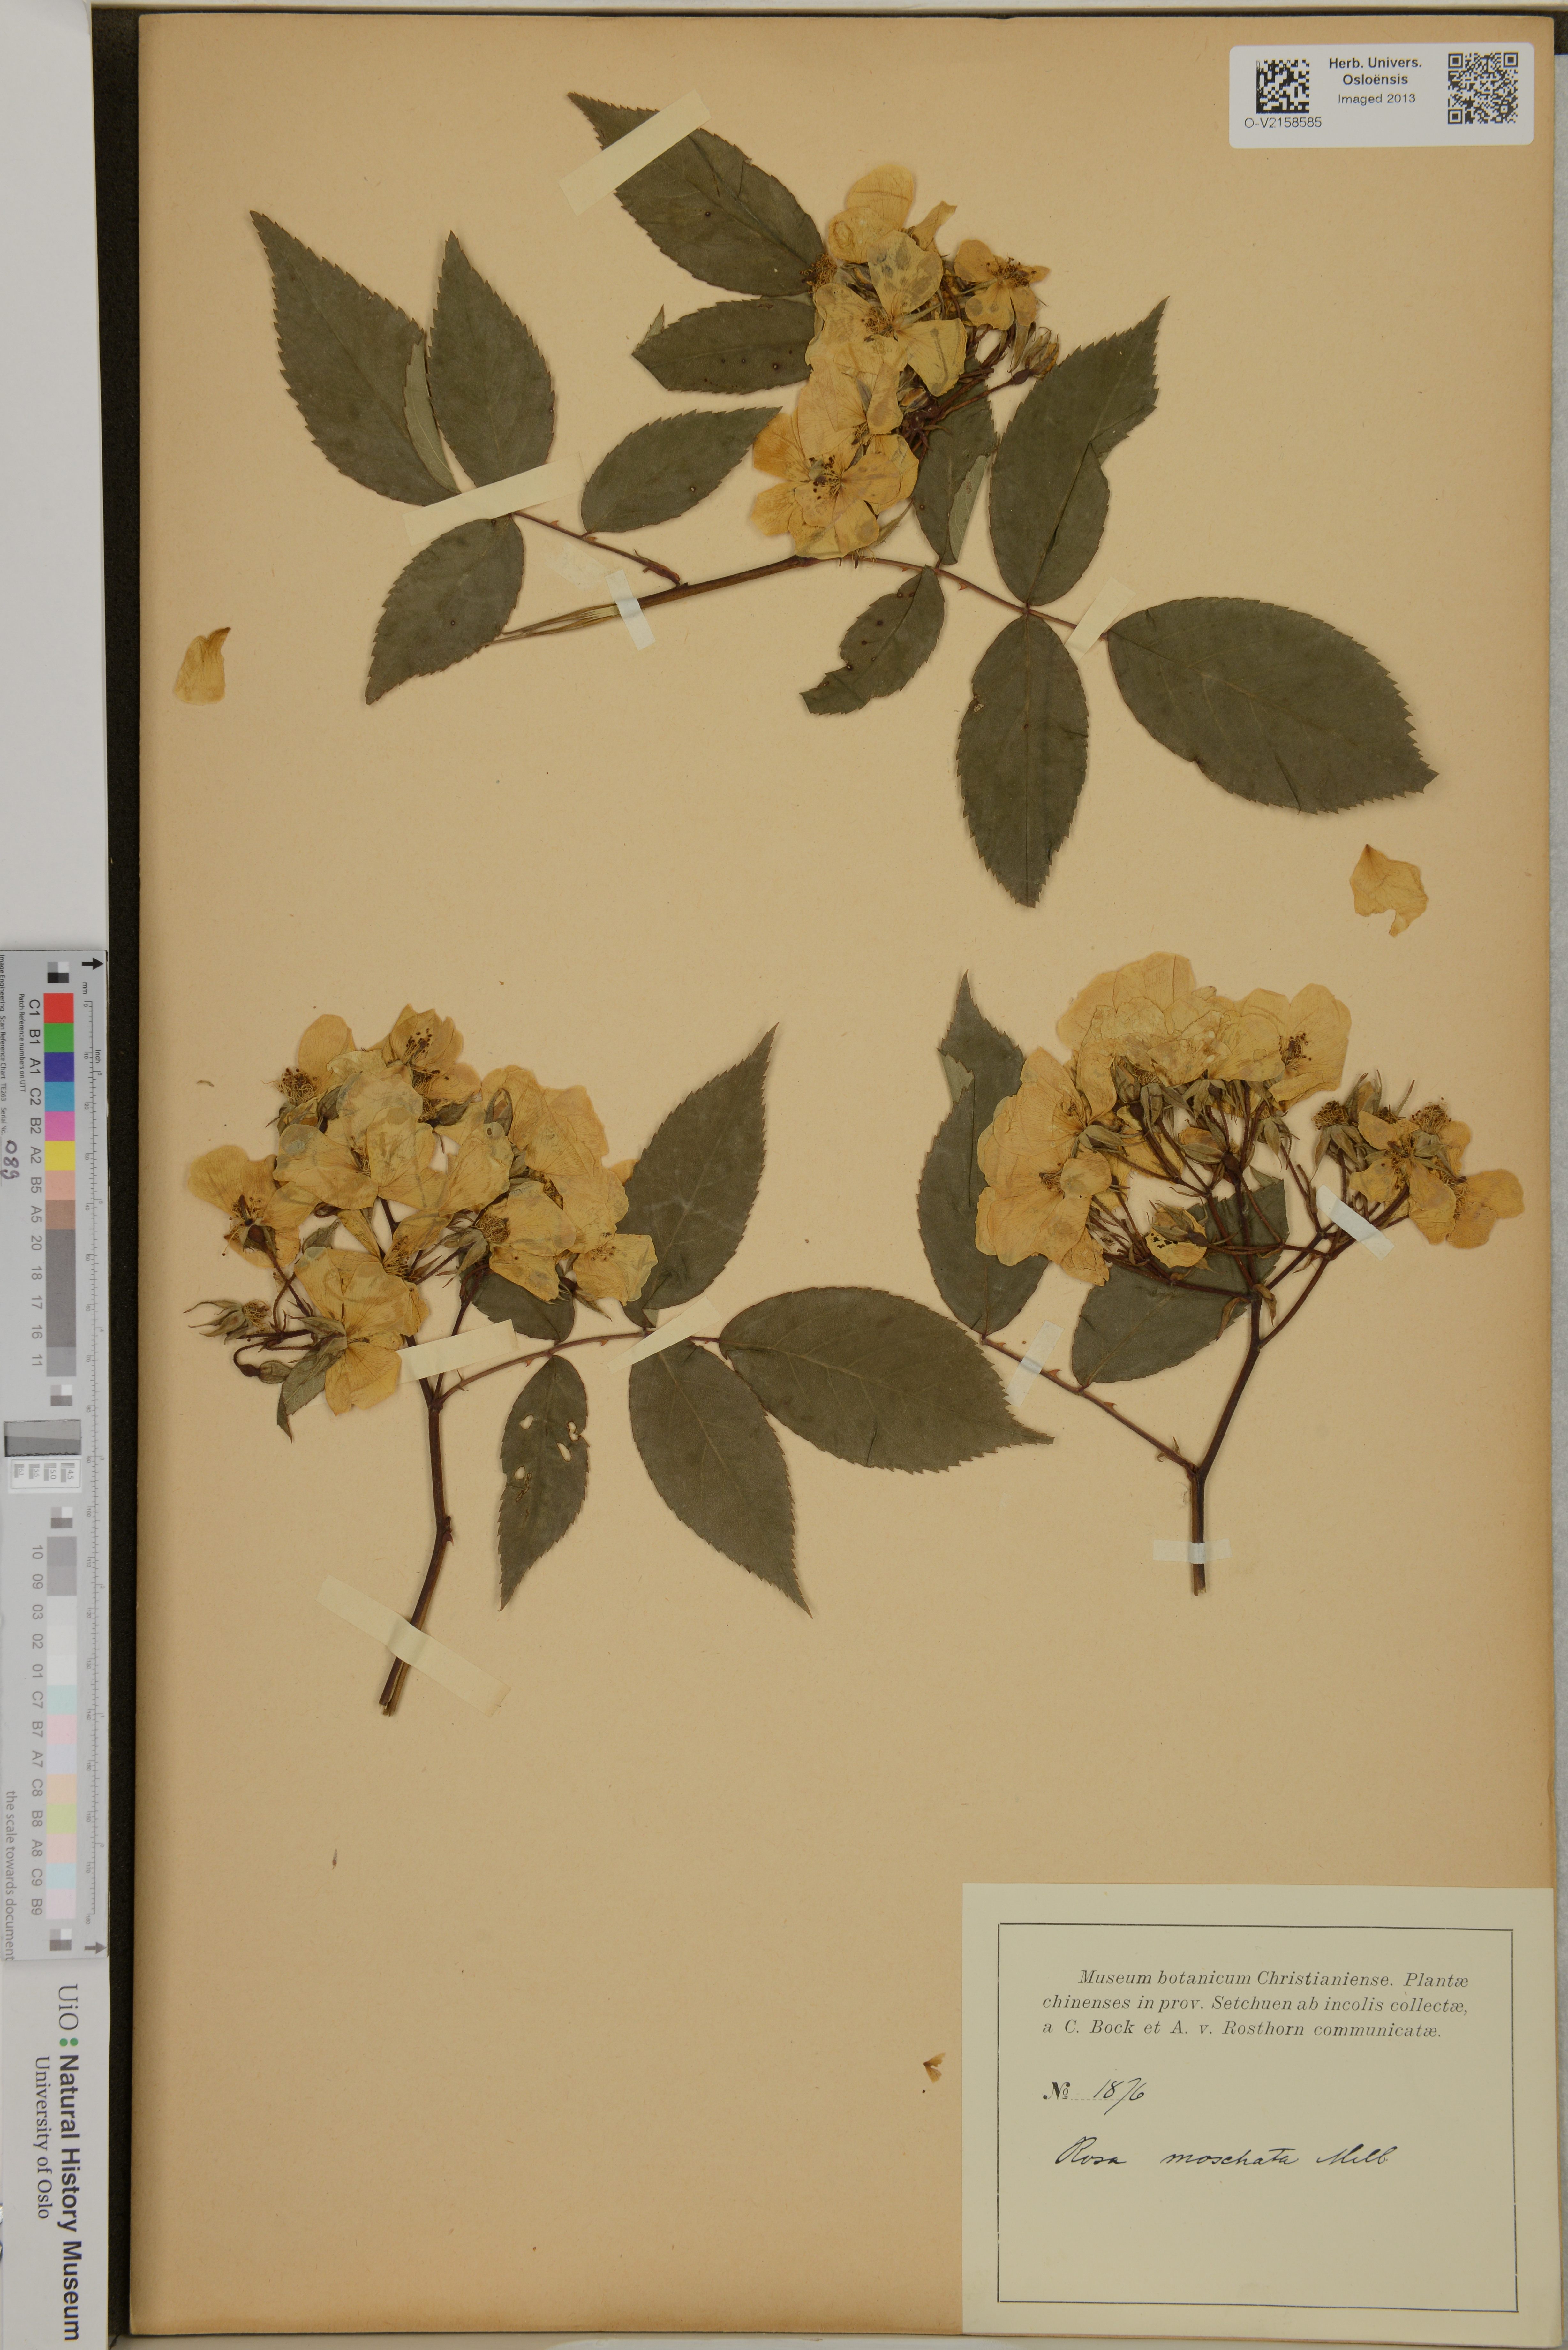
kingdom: Plantae
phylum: Tracheophyta
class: Magnoliopsida
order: Rosales
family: Rosaceae
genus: Rosa
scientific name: Rosa moschata
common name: Musk rose
